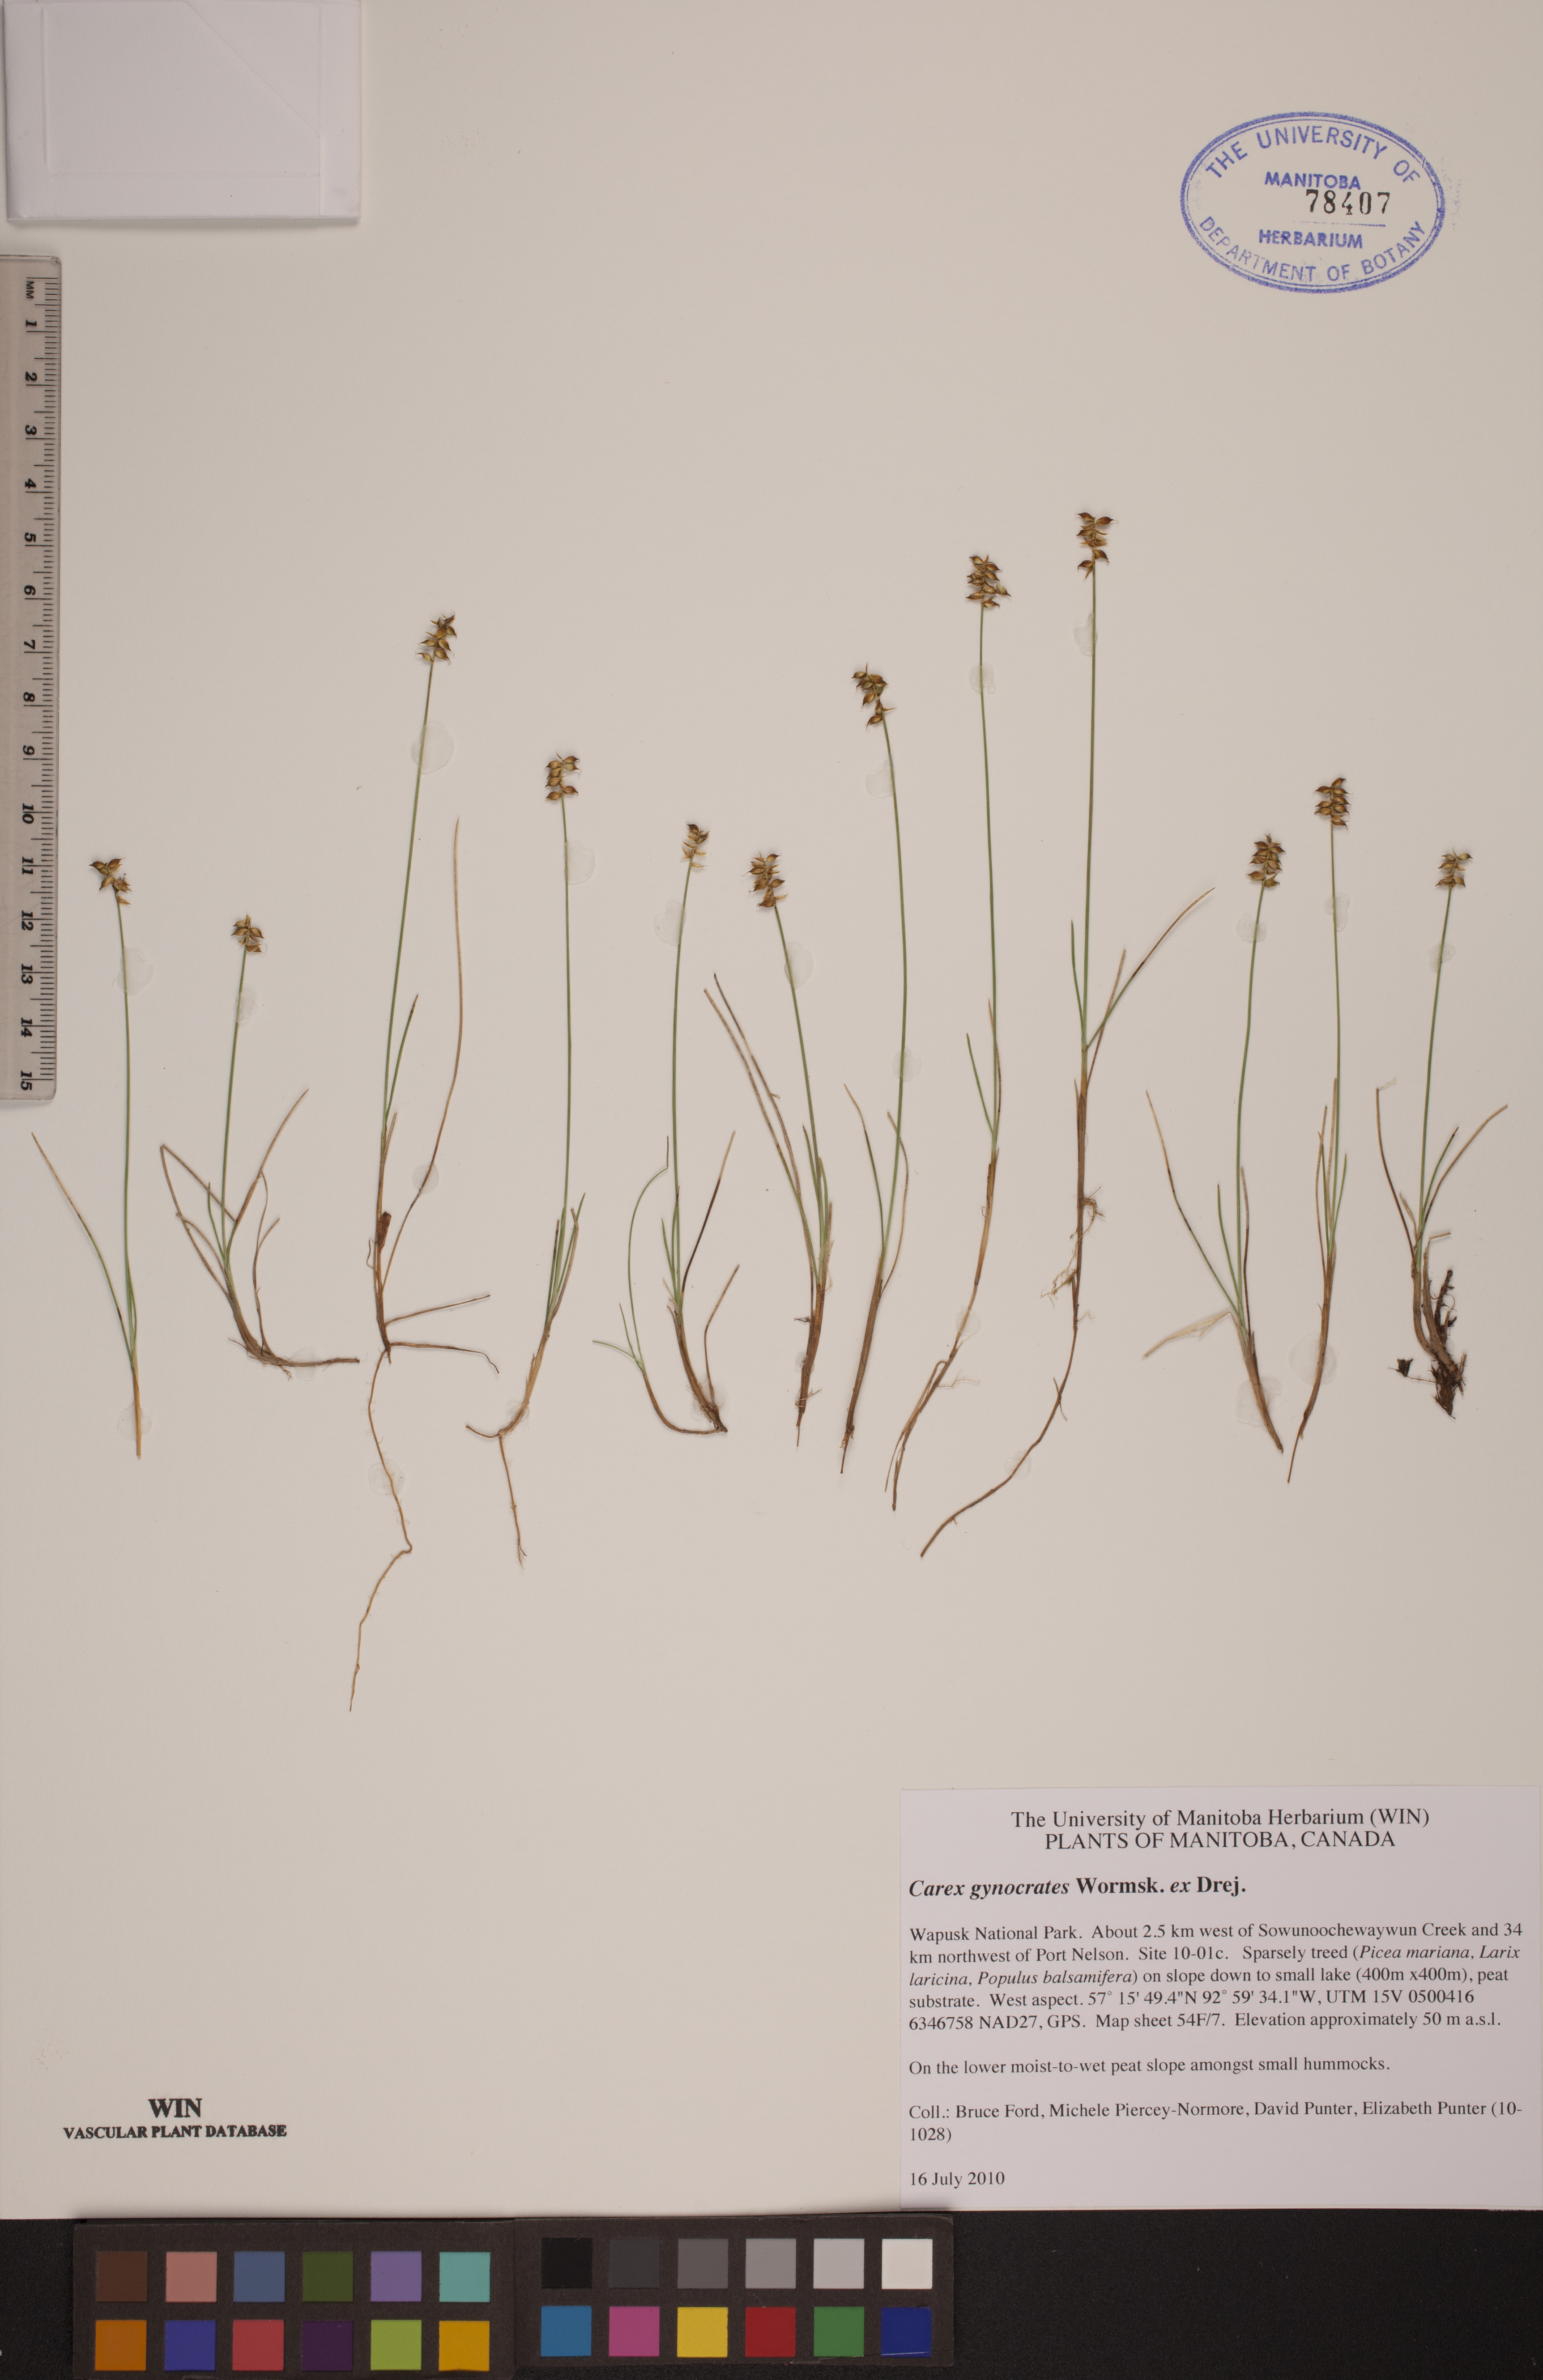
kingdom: Plantae
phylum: Tracheophyta
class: Liliopsida
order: Poales
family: Cyperaceae
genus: Carex
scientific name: Carex nardina
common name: Nard sedge
